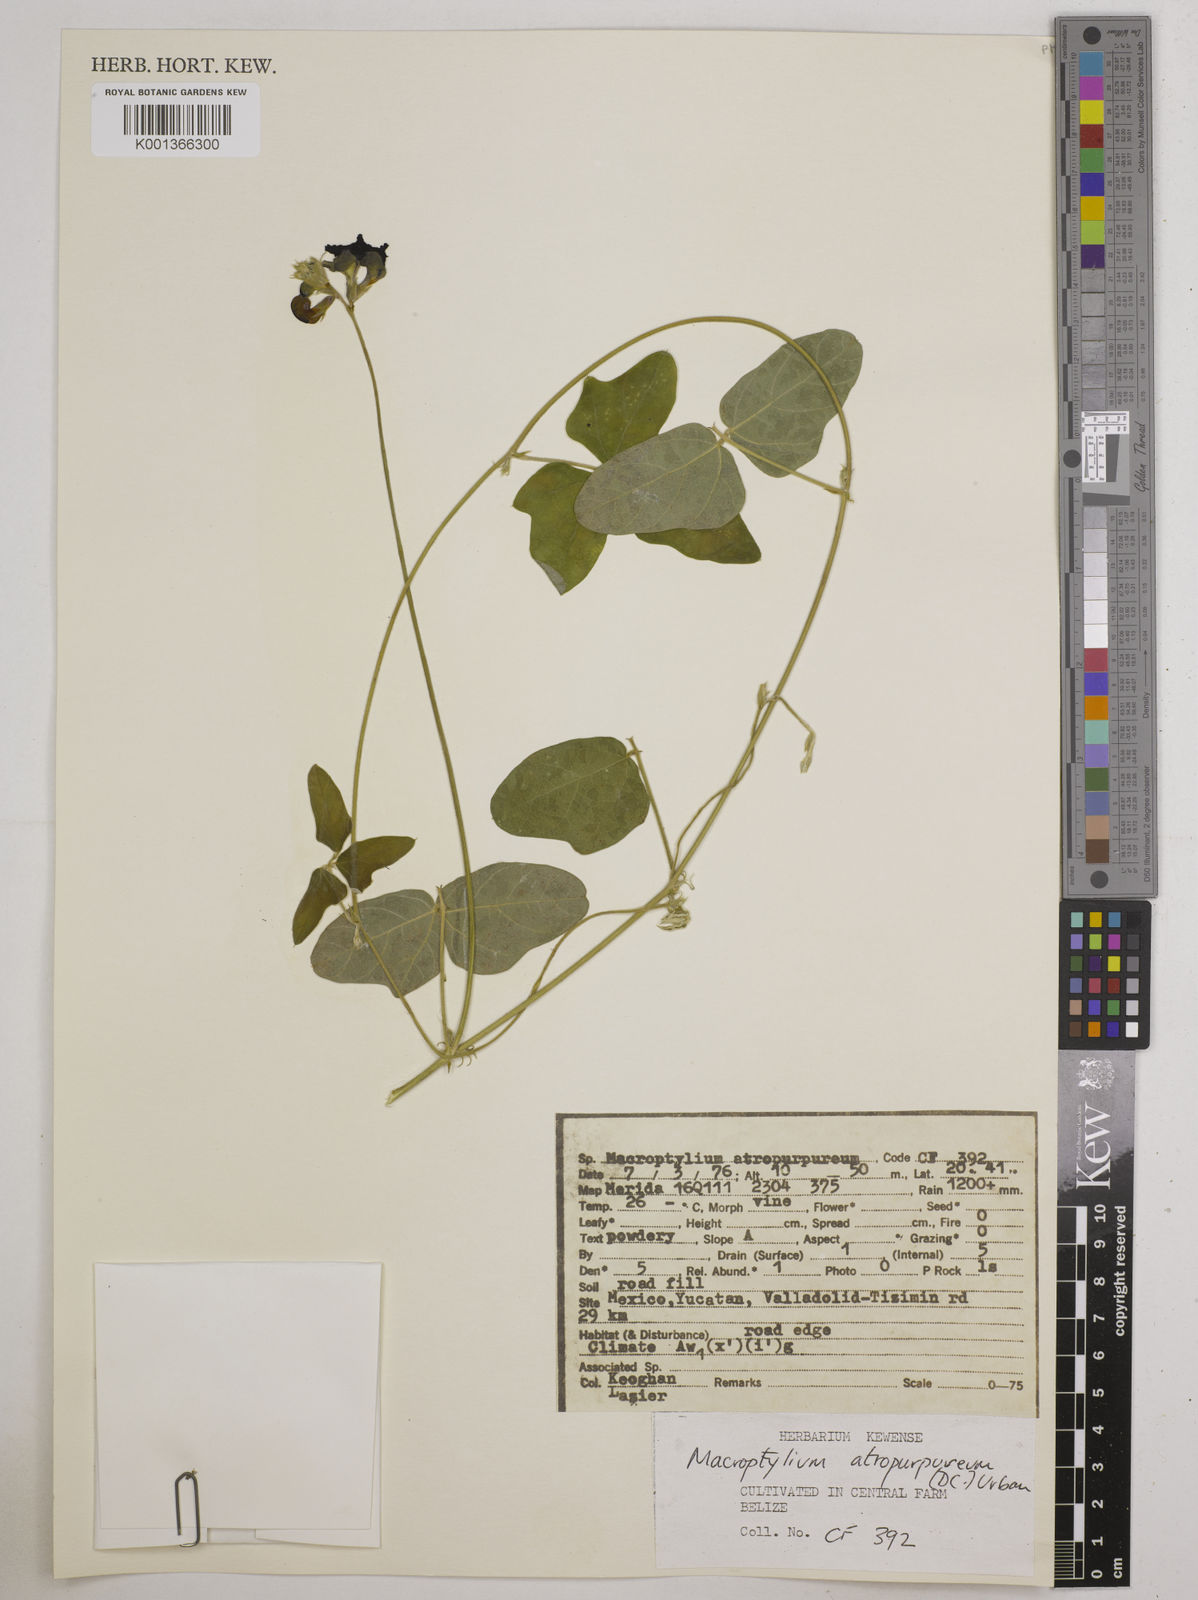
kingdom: Plantae
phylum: Tracheophyta
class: Magnoliopsida
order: Fabales
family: Fabaceae
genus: Macroptilium
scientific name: Macroptilium atropurpureum
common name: Purple bushbean
